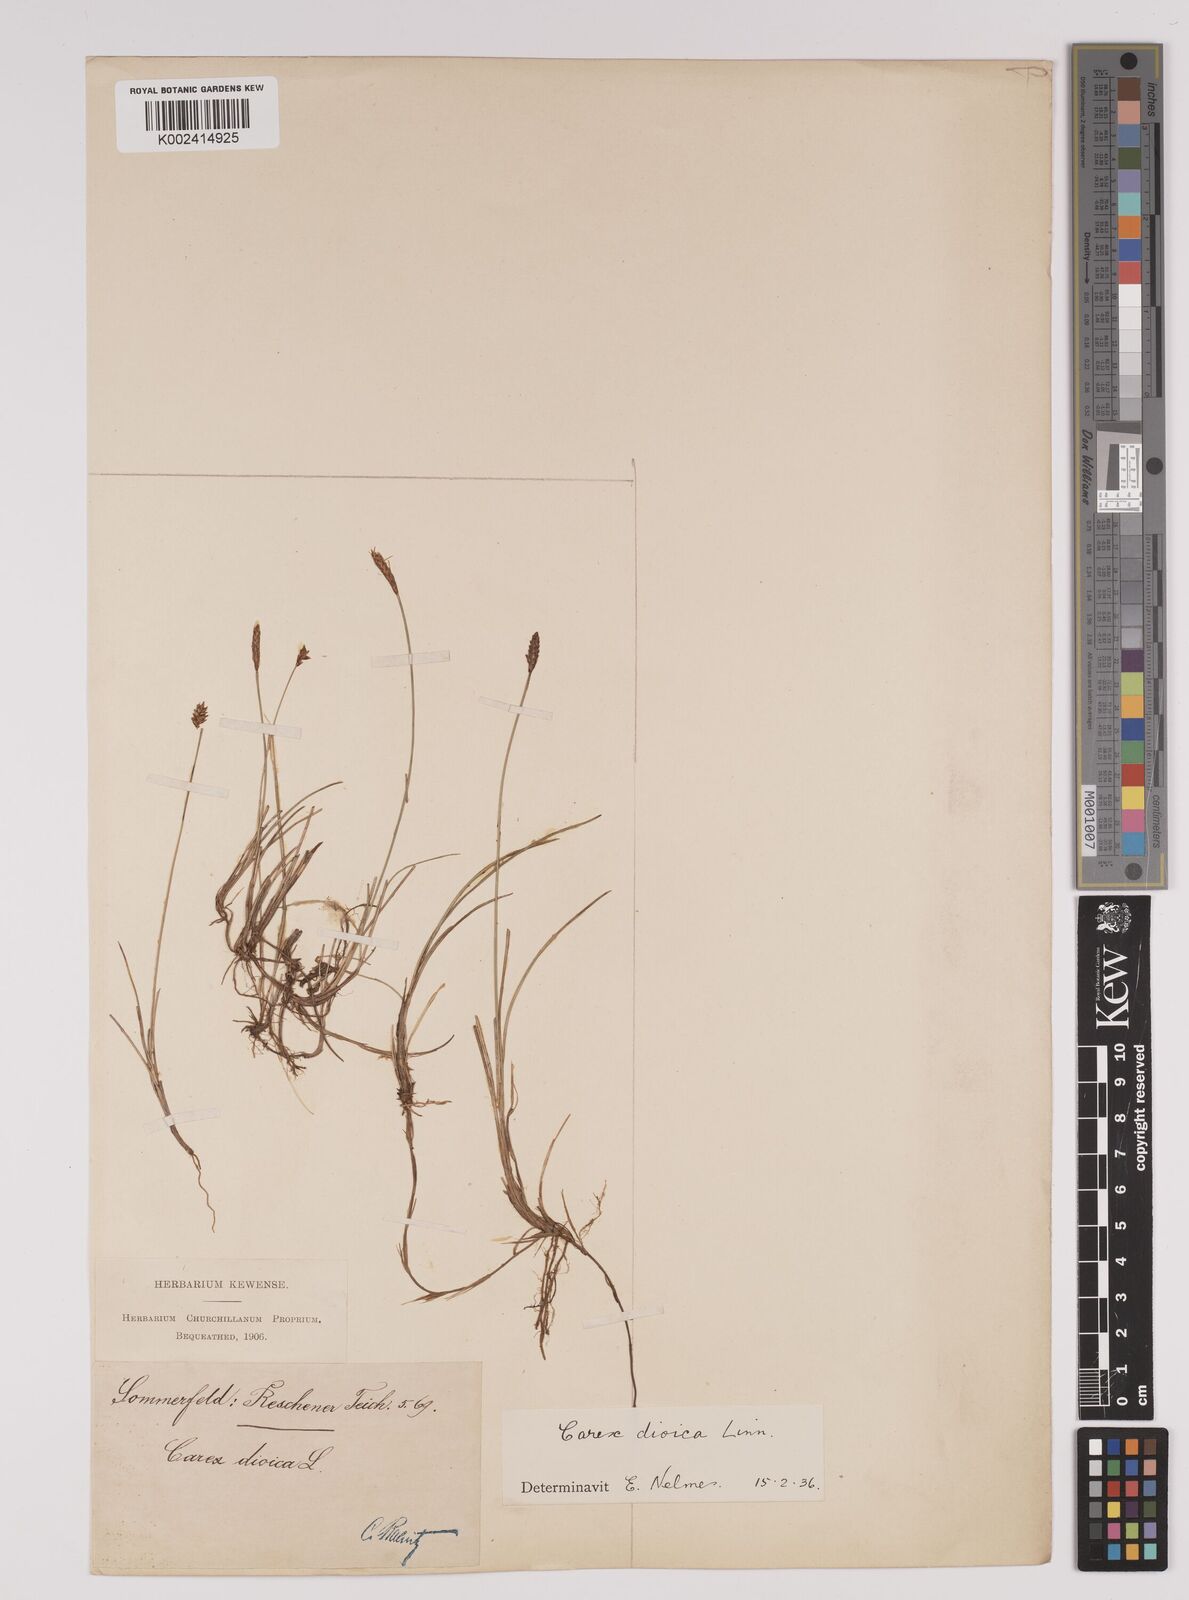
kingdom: Plantae
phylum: Tracheophyta
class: Liliopsida
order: Poales
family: Cyperaceae
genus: Carex
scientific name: Carex dioica
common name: Dioecious sedge
